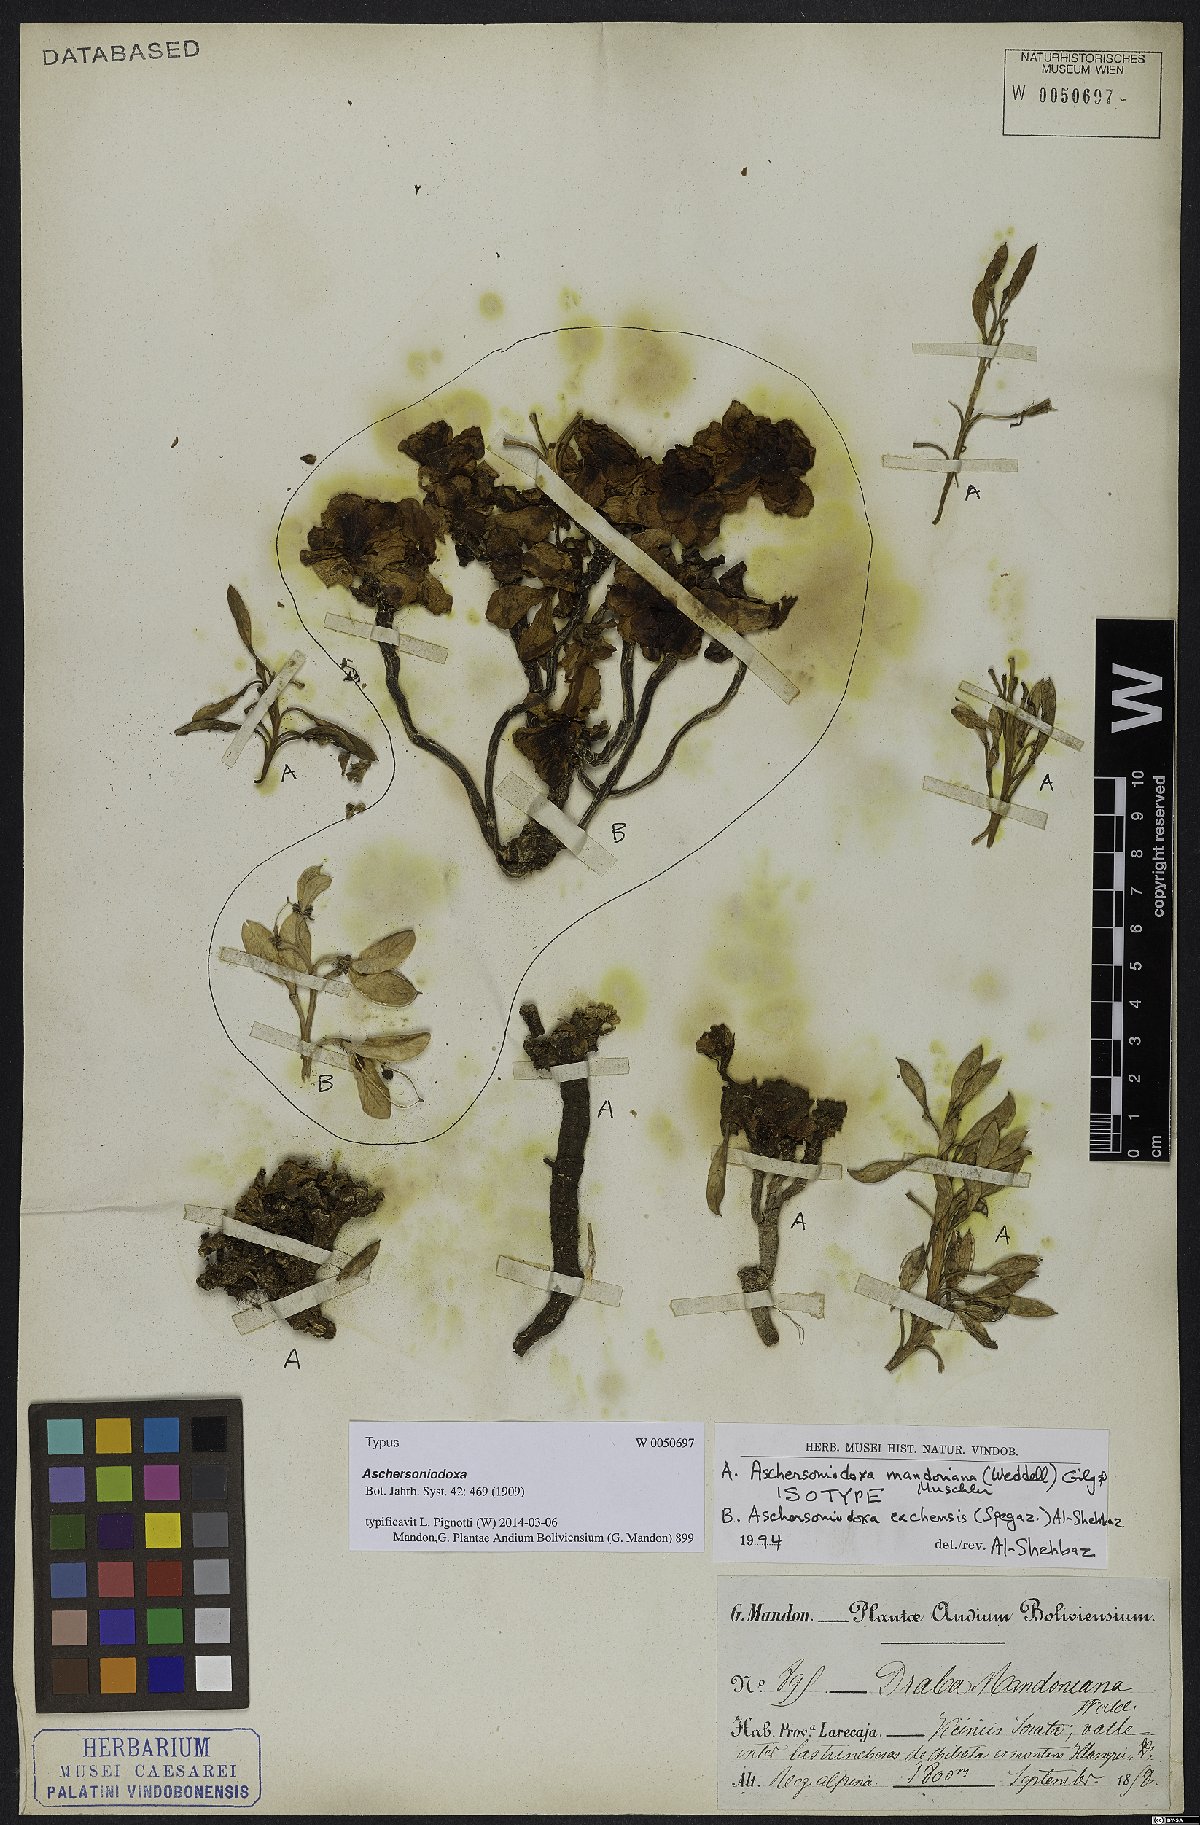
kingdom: Plantae
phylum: Tracheophyta
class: Magnoliopsida
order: Brassicales
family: Brassicaceae
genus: Aschersoniodoxa
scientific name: Aschersoniodoxa mandoniana
